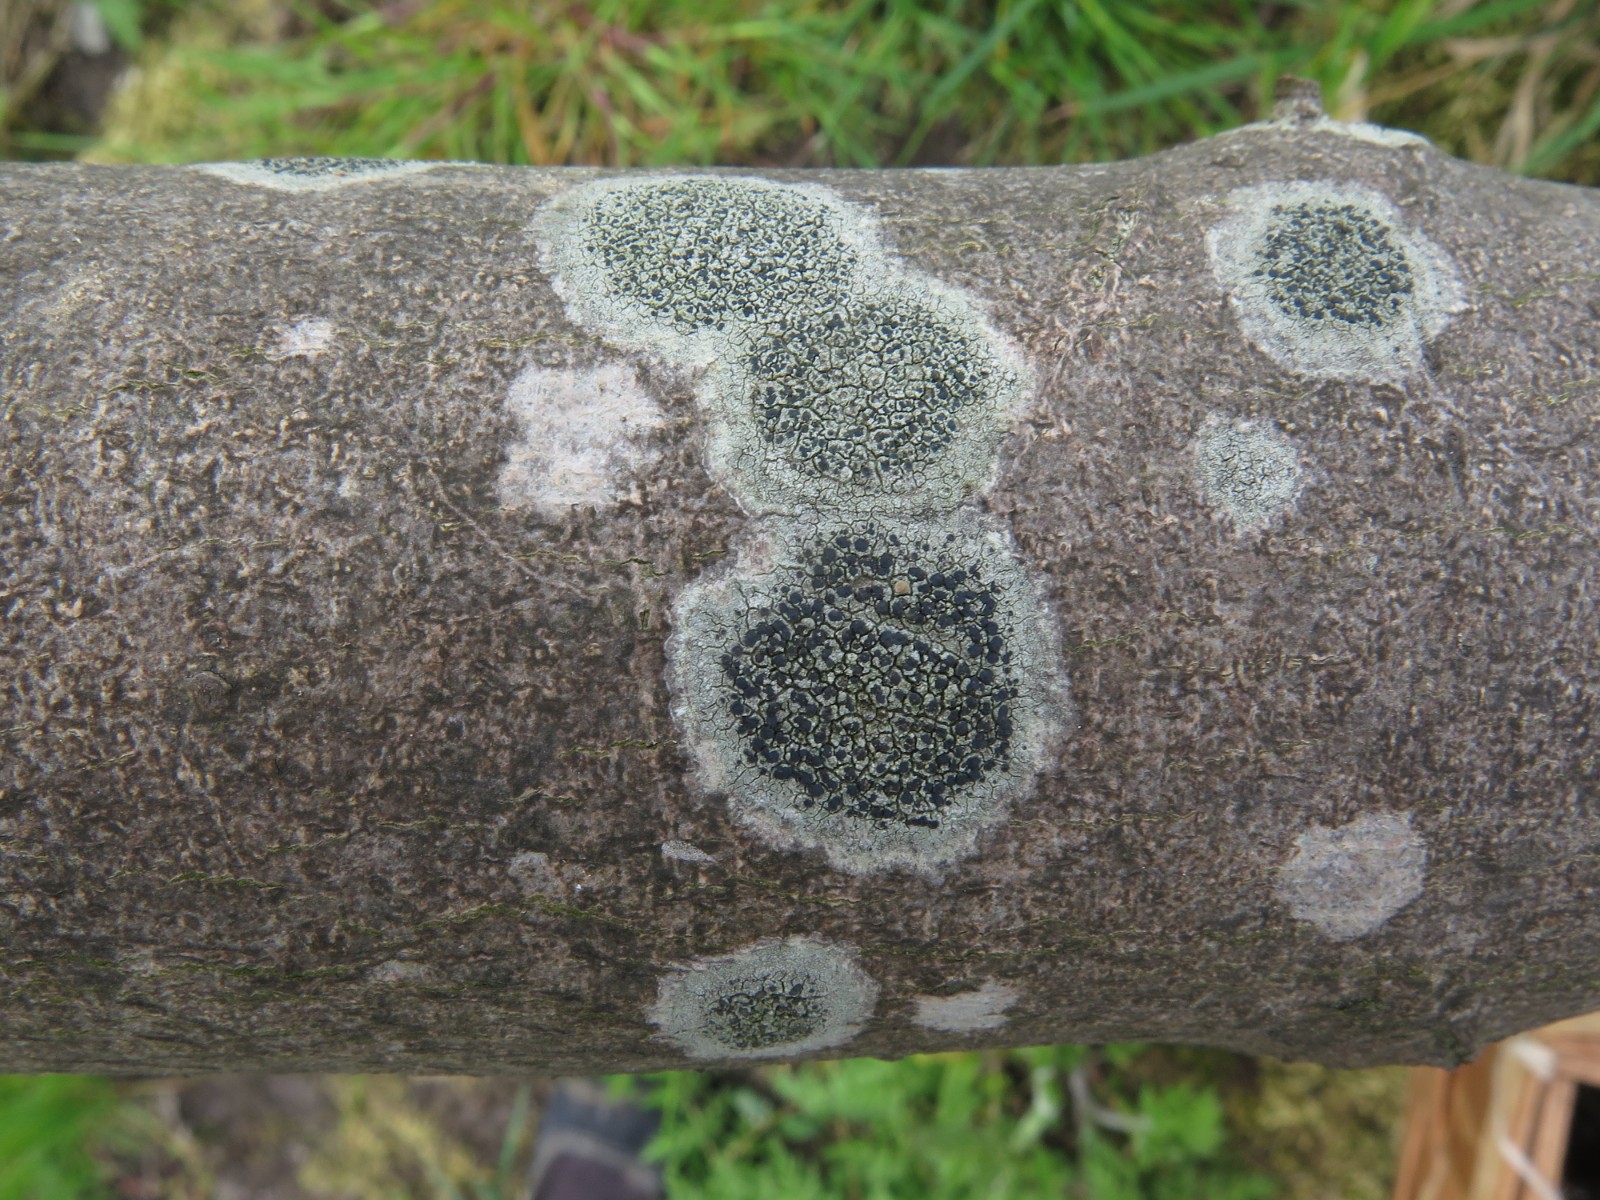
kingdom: Fungi
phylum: Ascomycota
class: Lecanoromycetes
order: Lecanorales
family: Lecanoraceae
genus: Lecidella
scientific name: Lecidella elaeochroma
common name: grågrøn skivelav
